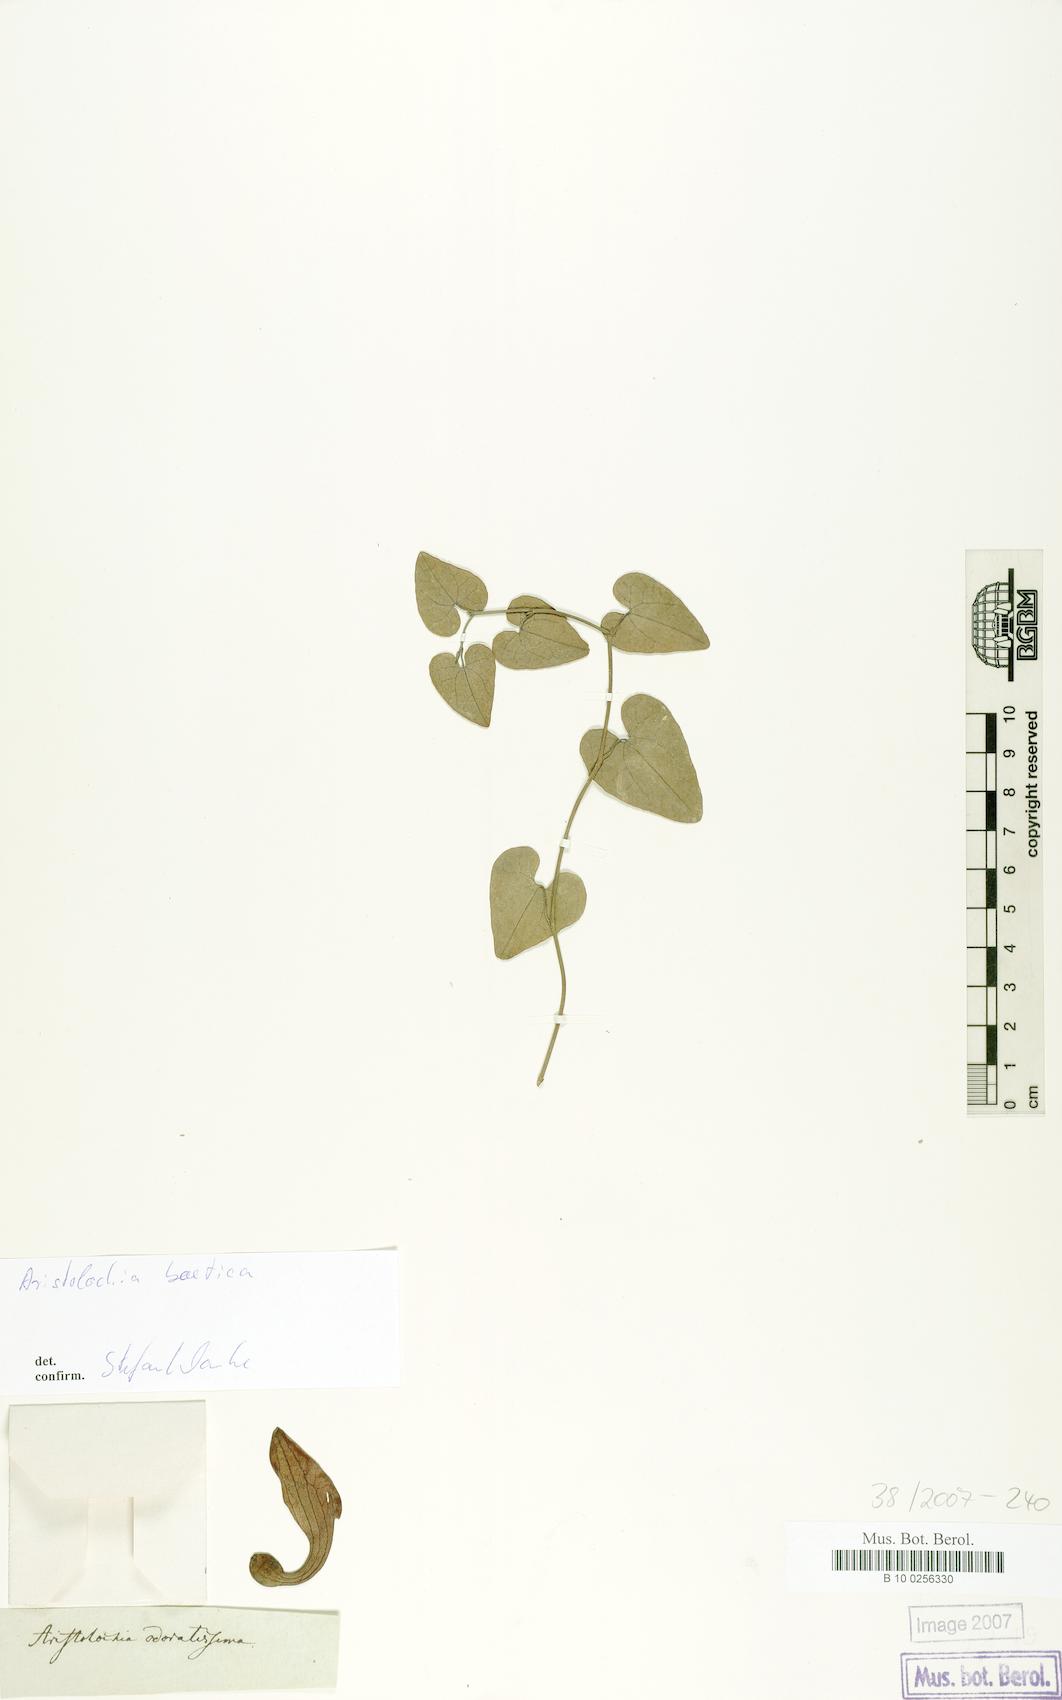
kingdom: Plantae
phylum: Tracheophyta
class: Magnoliopsida
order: Piperales
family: Aristolochiaceae
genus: Aristolochia
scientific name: Aristolochia baetica
